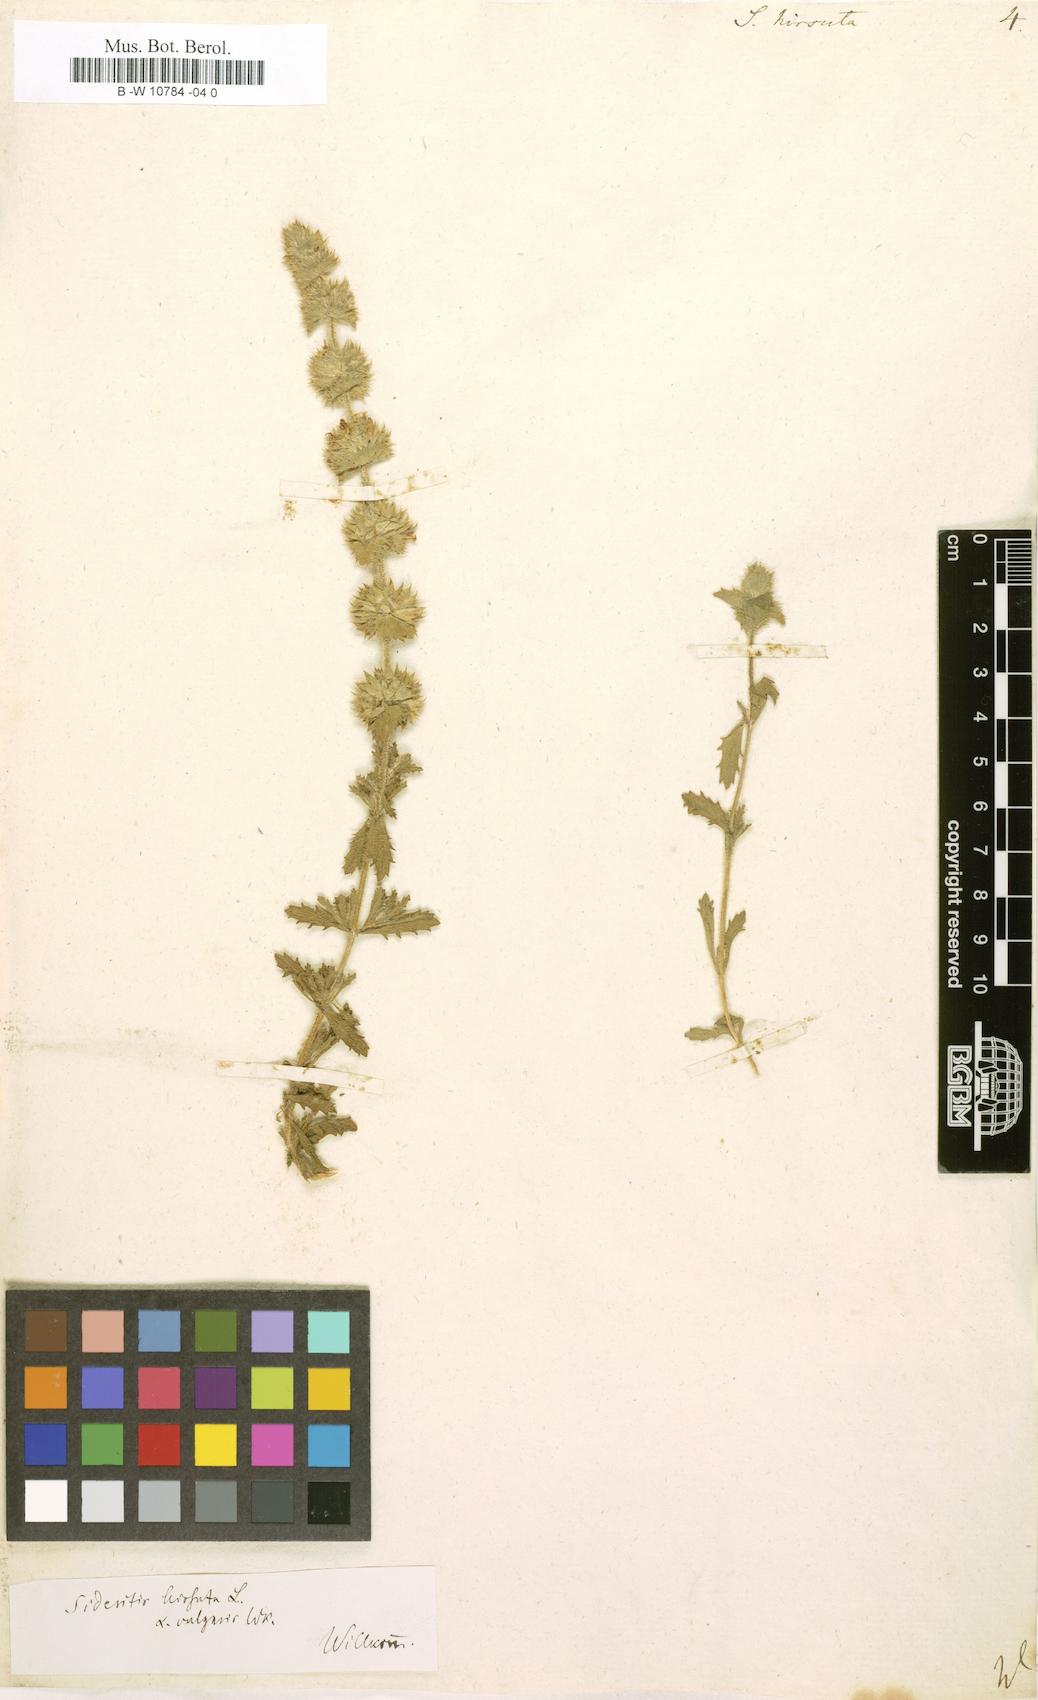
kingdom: Plantae
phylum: Tracheophyta
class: Magnoliopsida
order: Lamiales
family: Lamiaceae
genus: Sideritis
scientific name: Sideritis hirsuta
